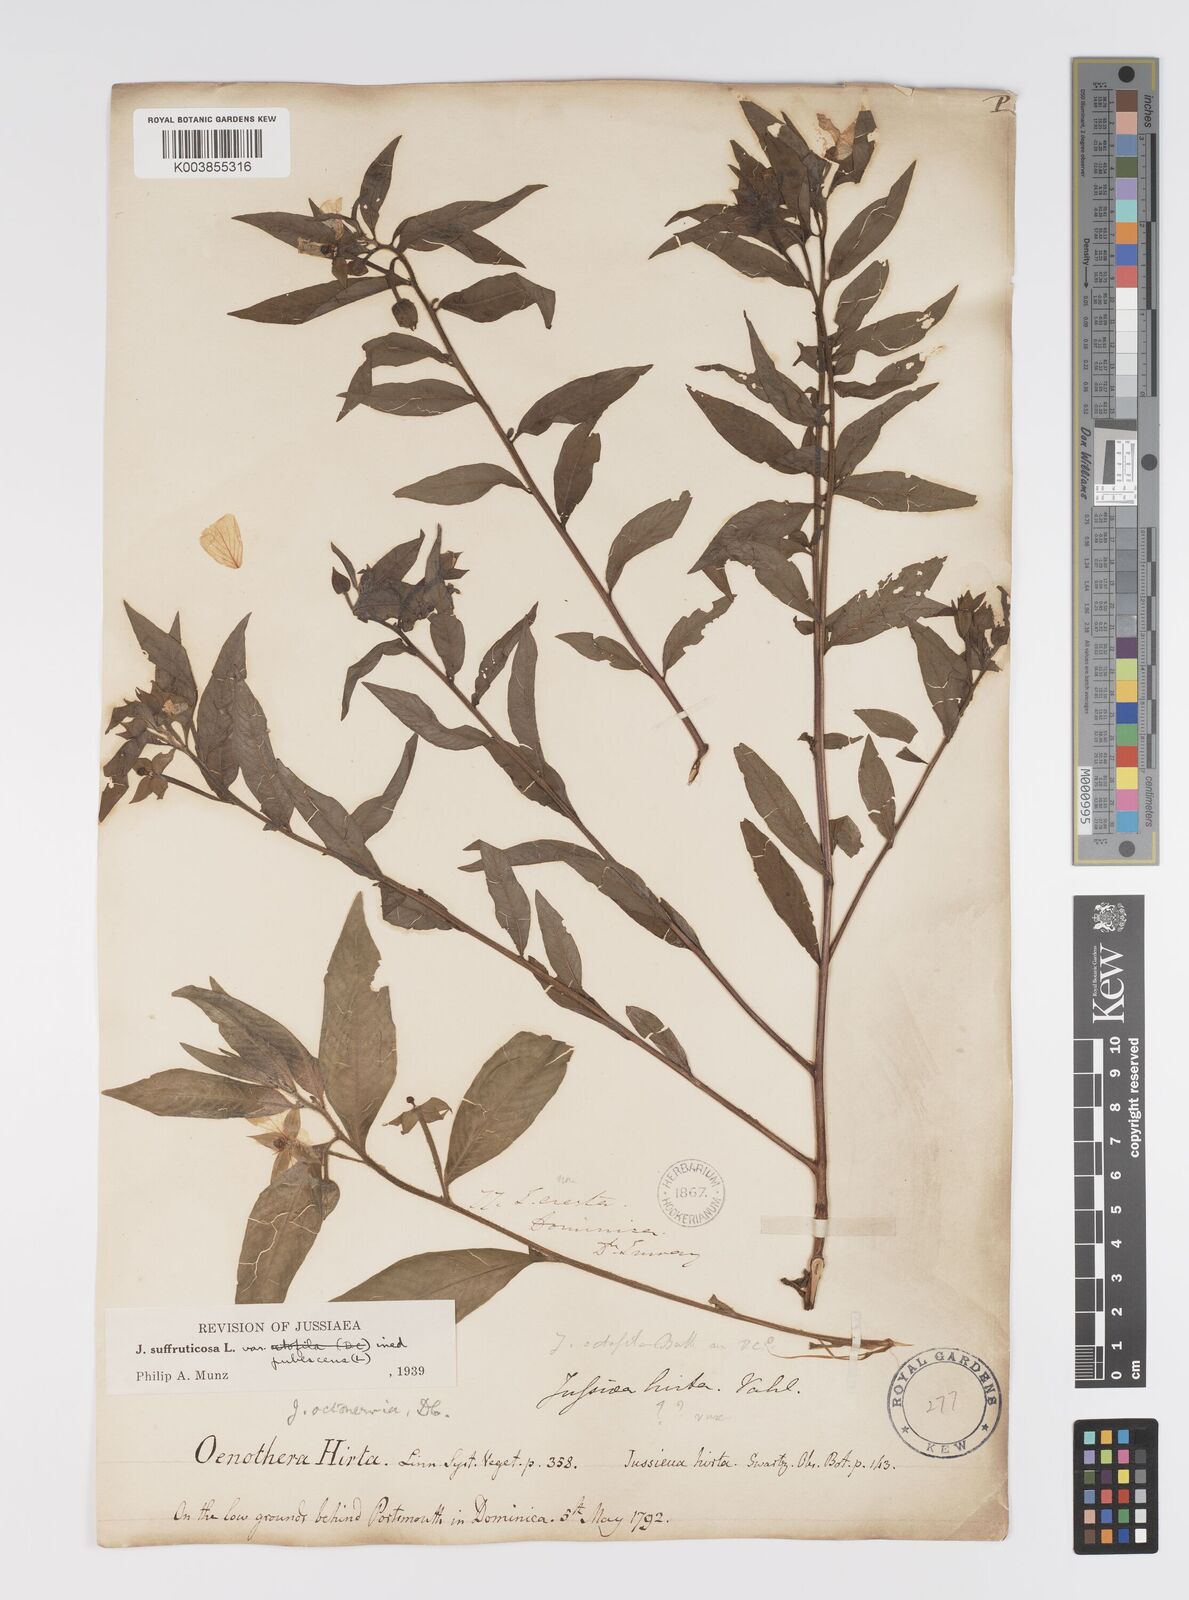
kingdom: Plantae
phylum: Tracheophyta
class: Magnoliopsida
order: Myrtales
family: Onagraceae
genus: Ludwigia
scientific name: Ludwigia octovalvis
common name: Water-primrose
